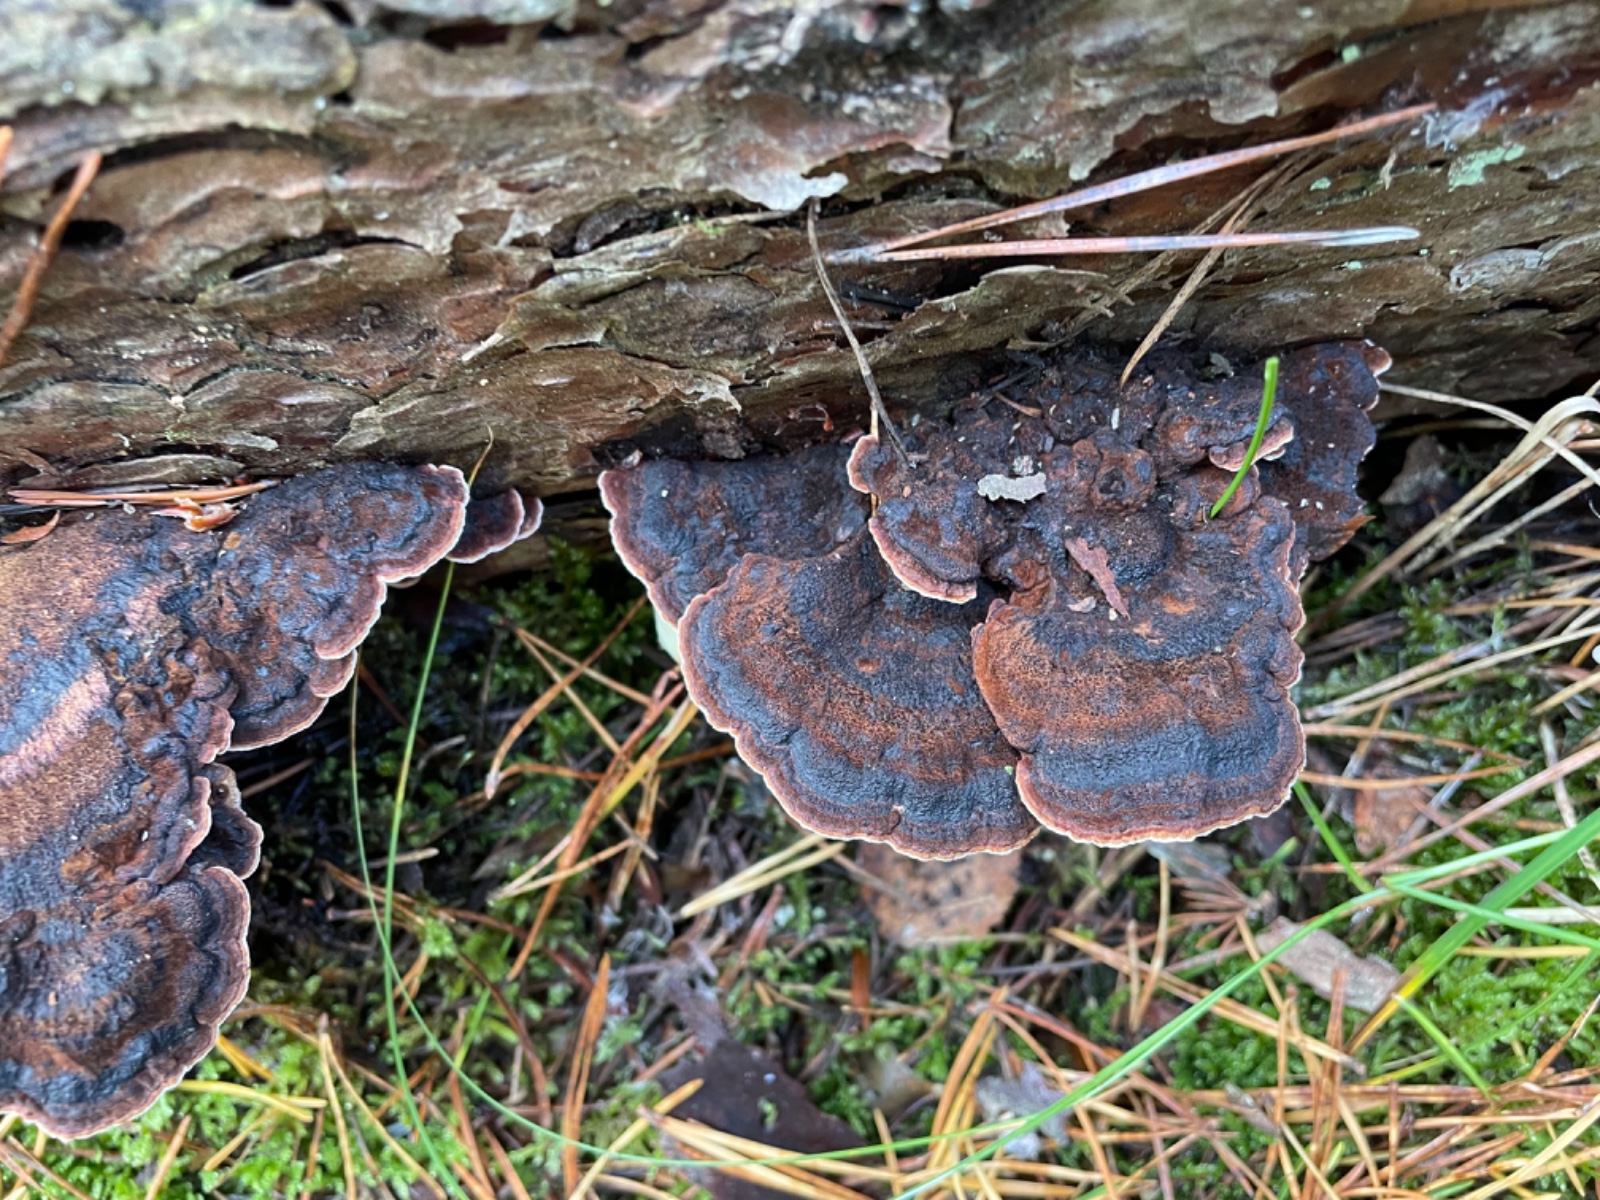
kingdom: Fungi
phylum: Basidiomycota
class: Agaricomycetes
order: Polyporales
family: Ischnodermataceae
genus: Ischnoderma
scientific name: Ischnoderma benzoinum
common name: gran-tjæreporesvamp
